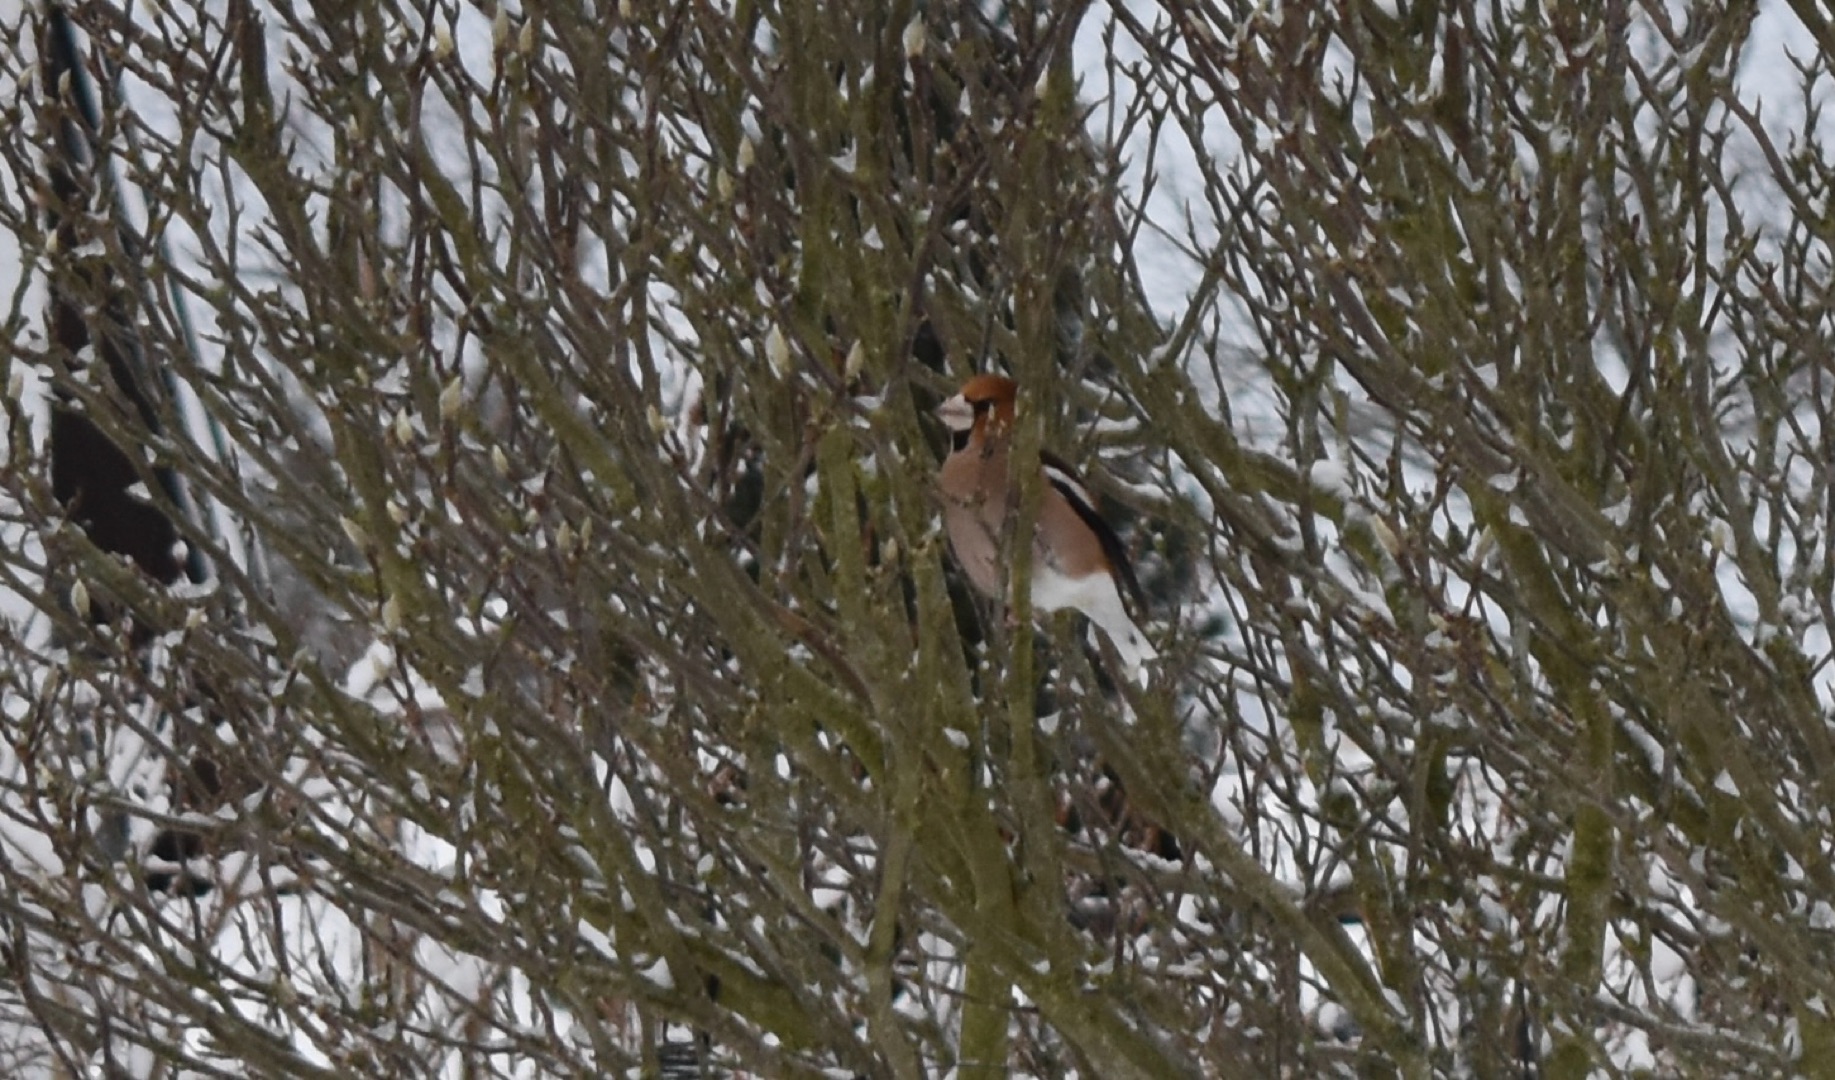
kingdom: Animalia
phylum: Chordata
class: Aves
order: Passeriformes
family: Fringillidae
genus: Coccothraustes
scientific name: Coccothraustes coccothraustes
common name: Kernebider
